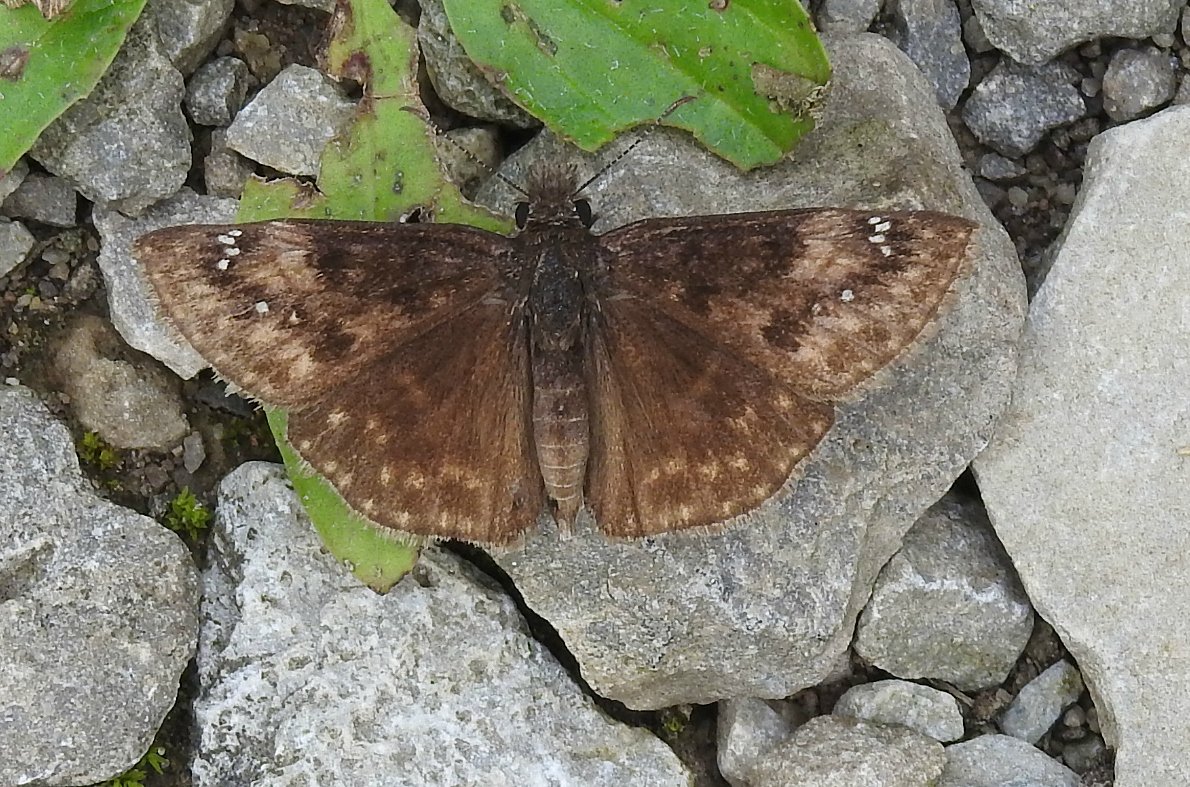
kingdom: Animalia
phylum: Arthropoda
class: Insecta
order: Lepidoptera
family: Hesperiidae
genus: Gesta
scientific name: Gesta
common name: Wild Indigo Duskywing
